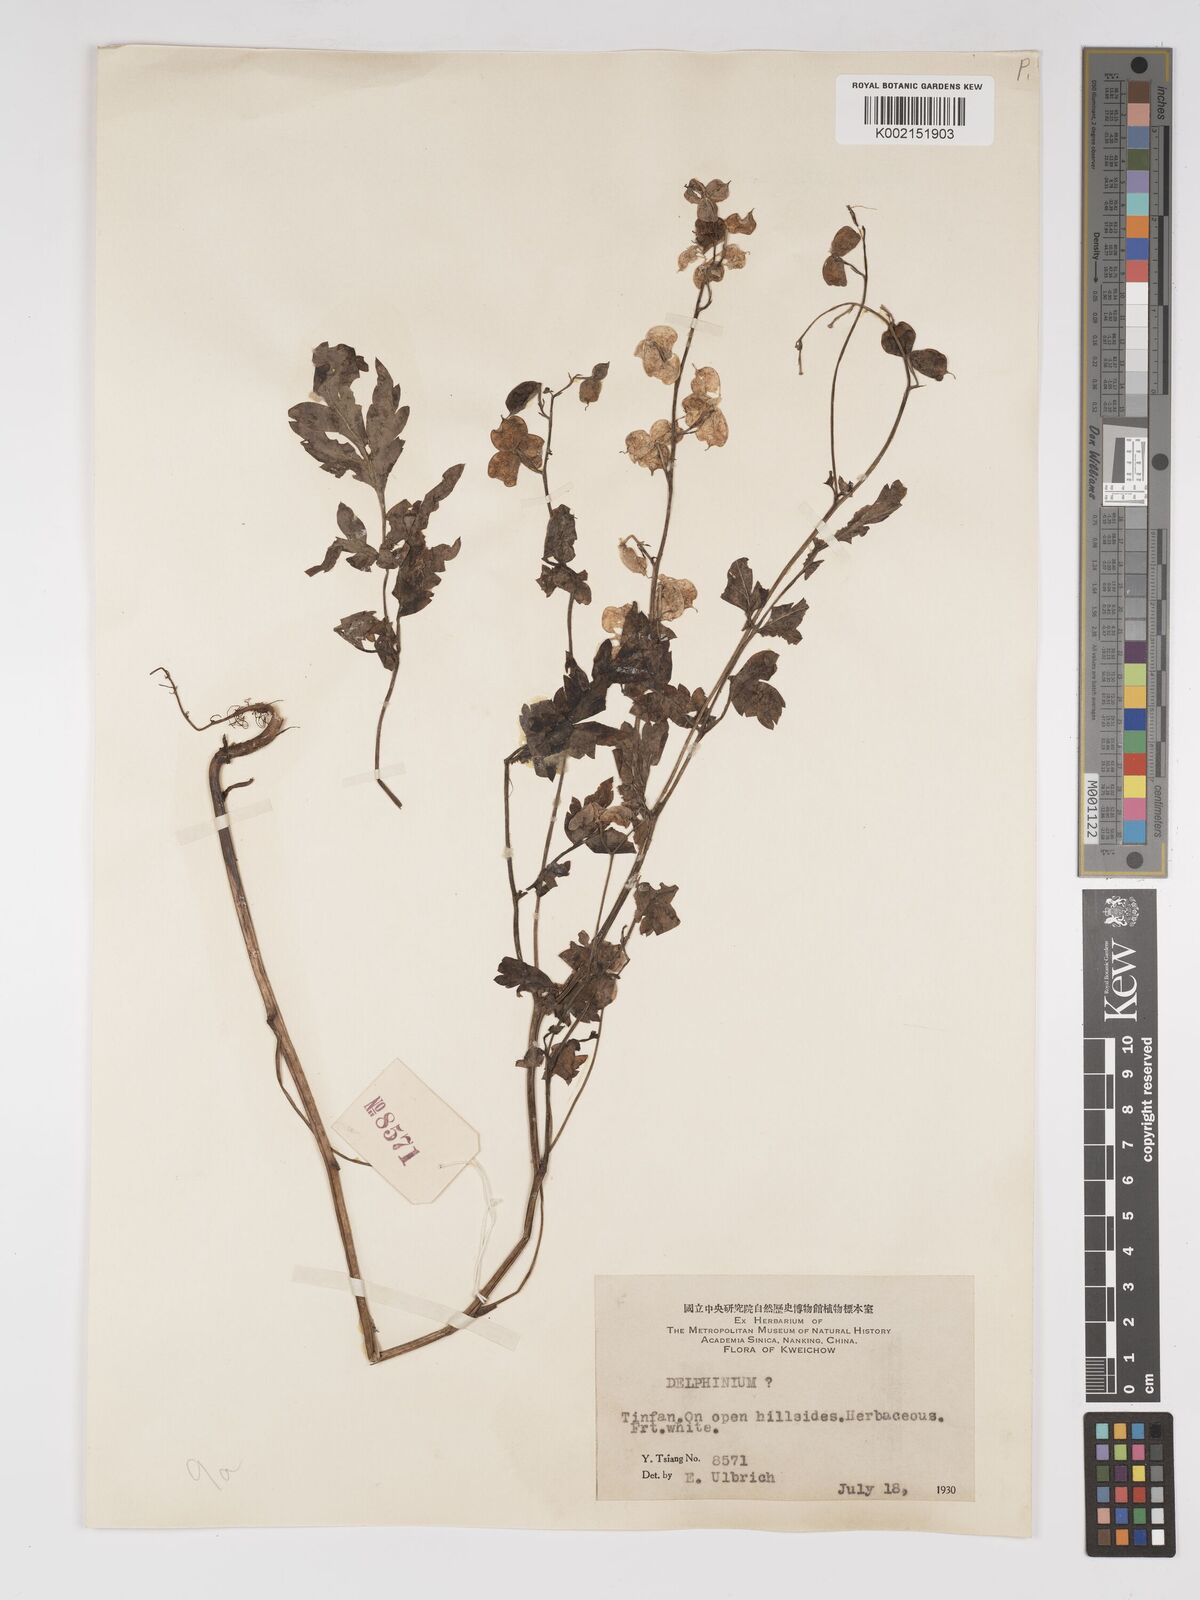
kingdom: Plantae
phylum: Tracheophyta
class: Magnoliopsida
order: Ranunculales
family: Ranunculaceae
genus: Delphinium
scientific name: Delphinium anthriscifolium
